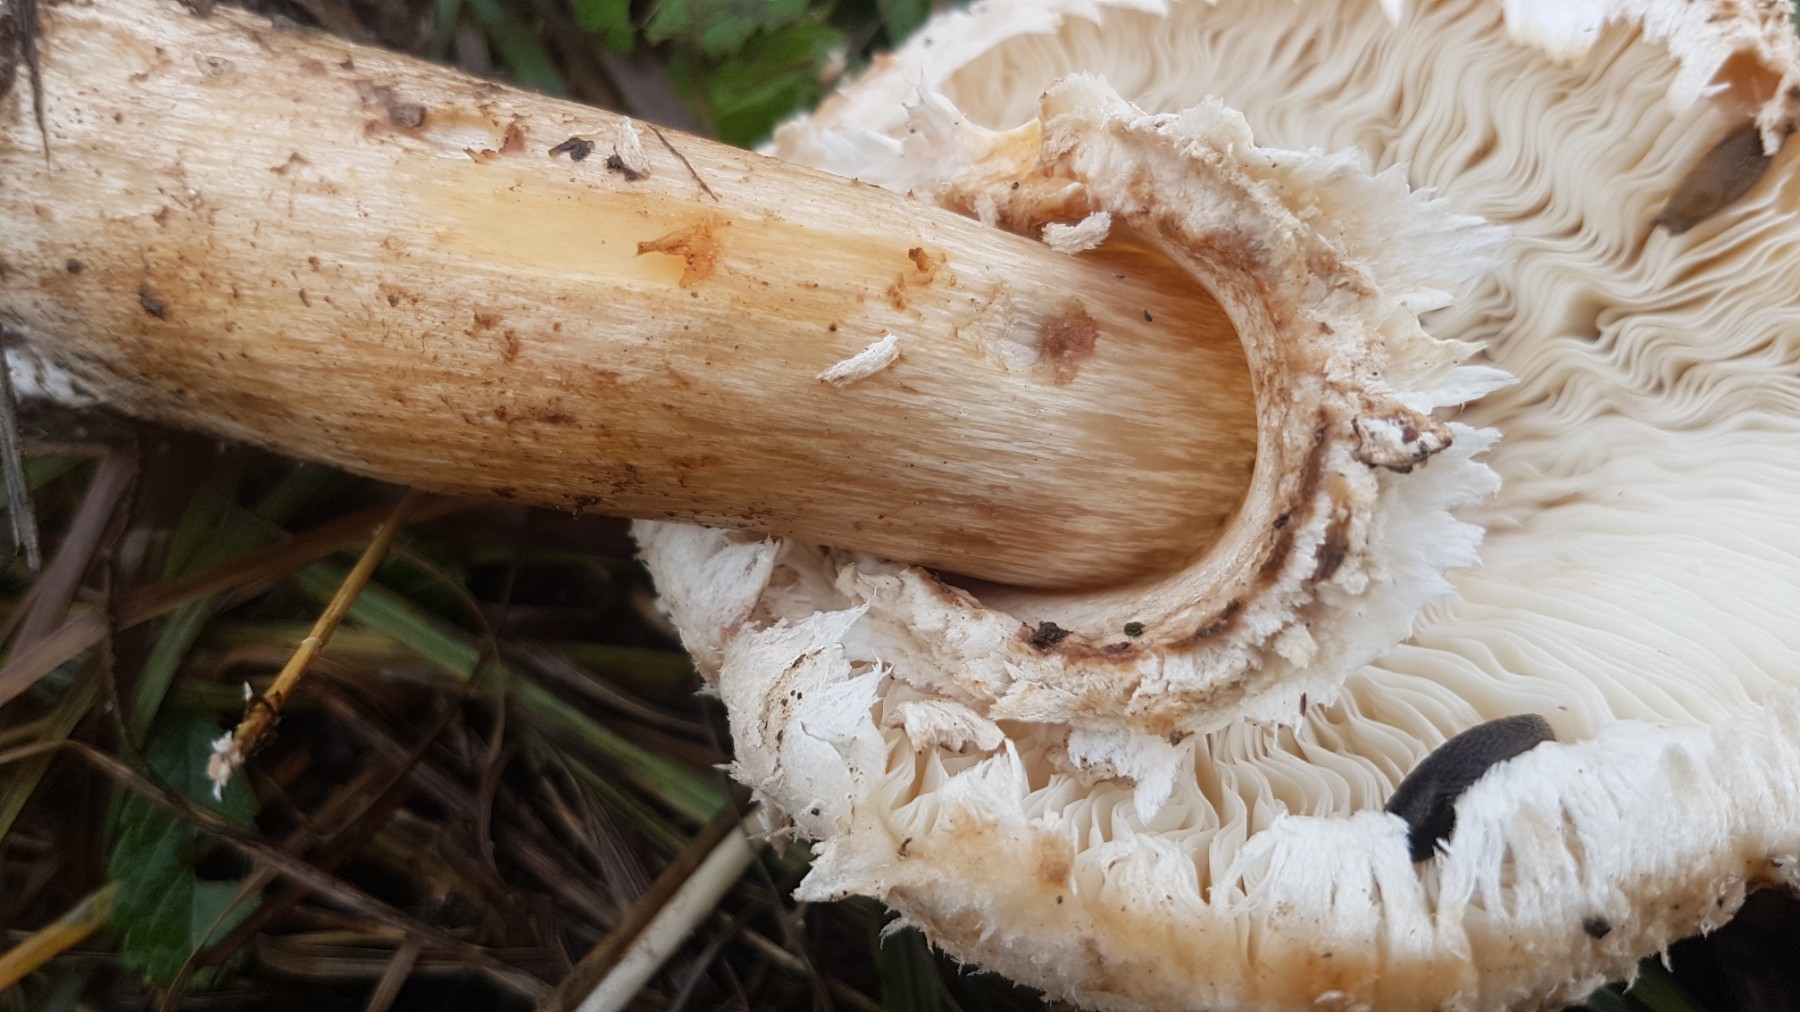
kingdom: Fungi
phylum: Basidiomycota
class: Agaricomycetes
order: Agaricales
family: Agaricaceae
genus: Chlorophyllum
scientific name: Chlorophyllum
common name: rabarberhat
